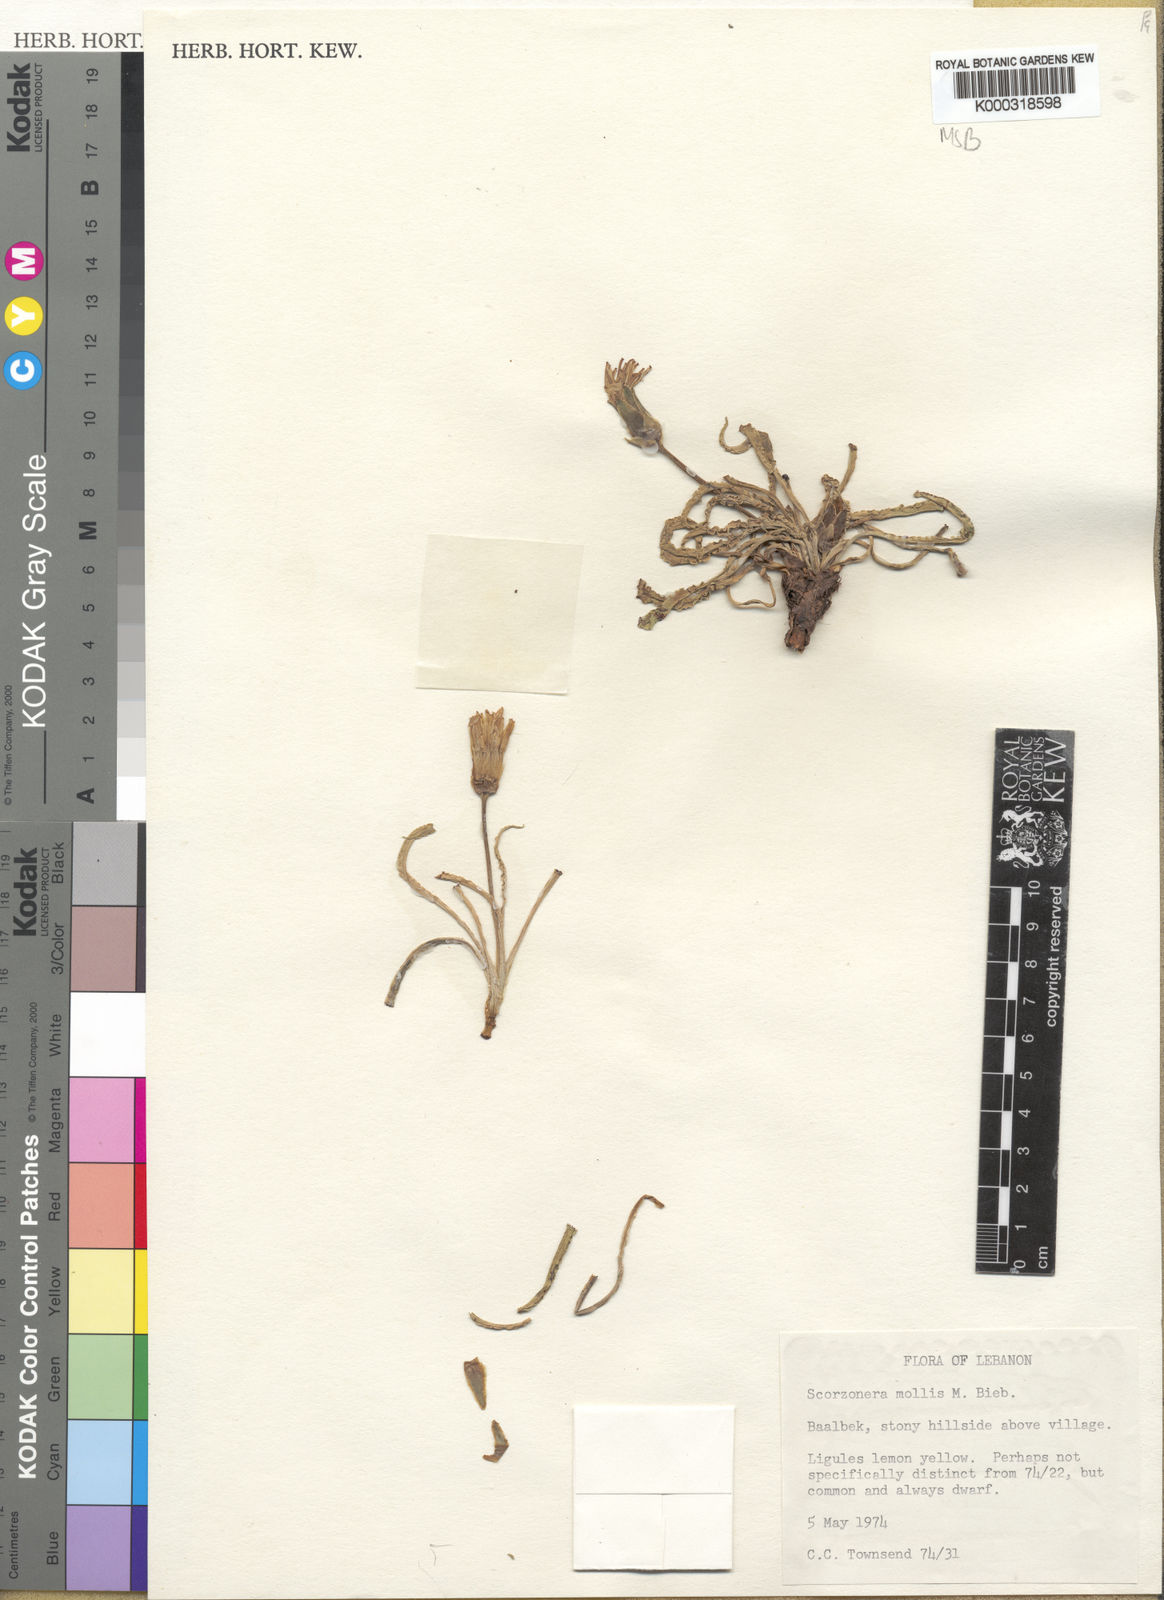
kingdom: Plantae
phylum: Tracheophyta
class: Magnoliopsida
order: Asterales
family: Asteraceae
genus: Candollea
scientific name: Candollea mollis
